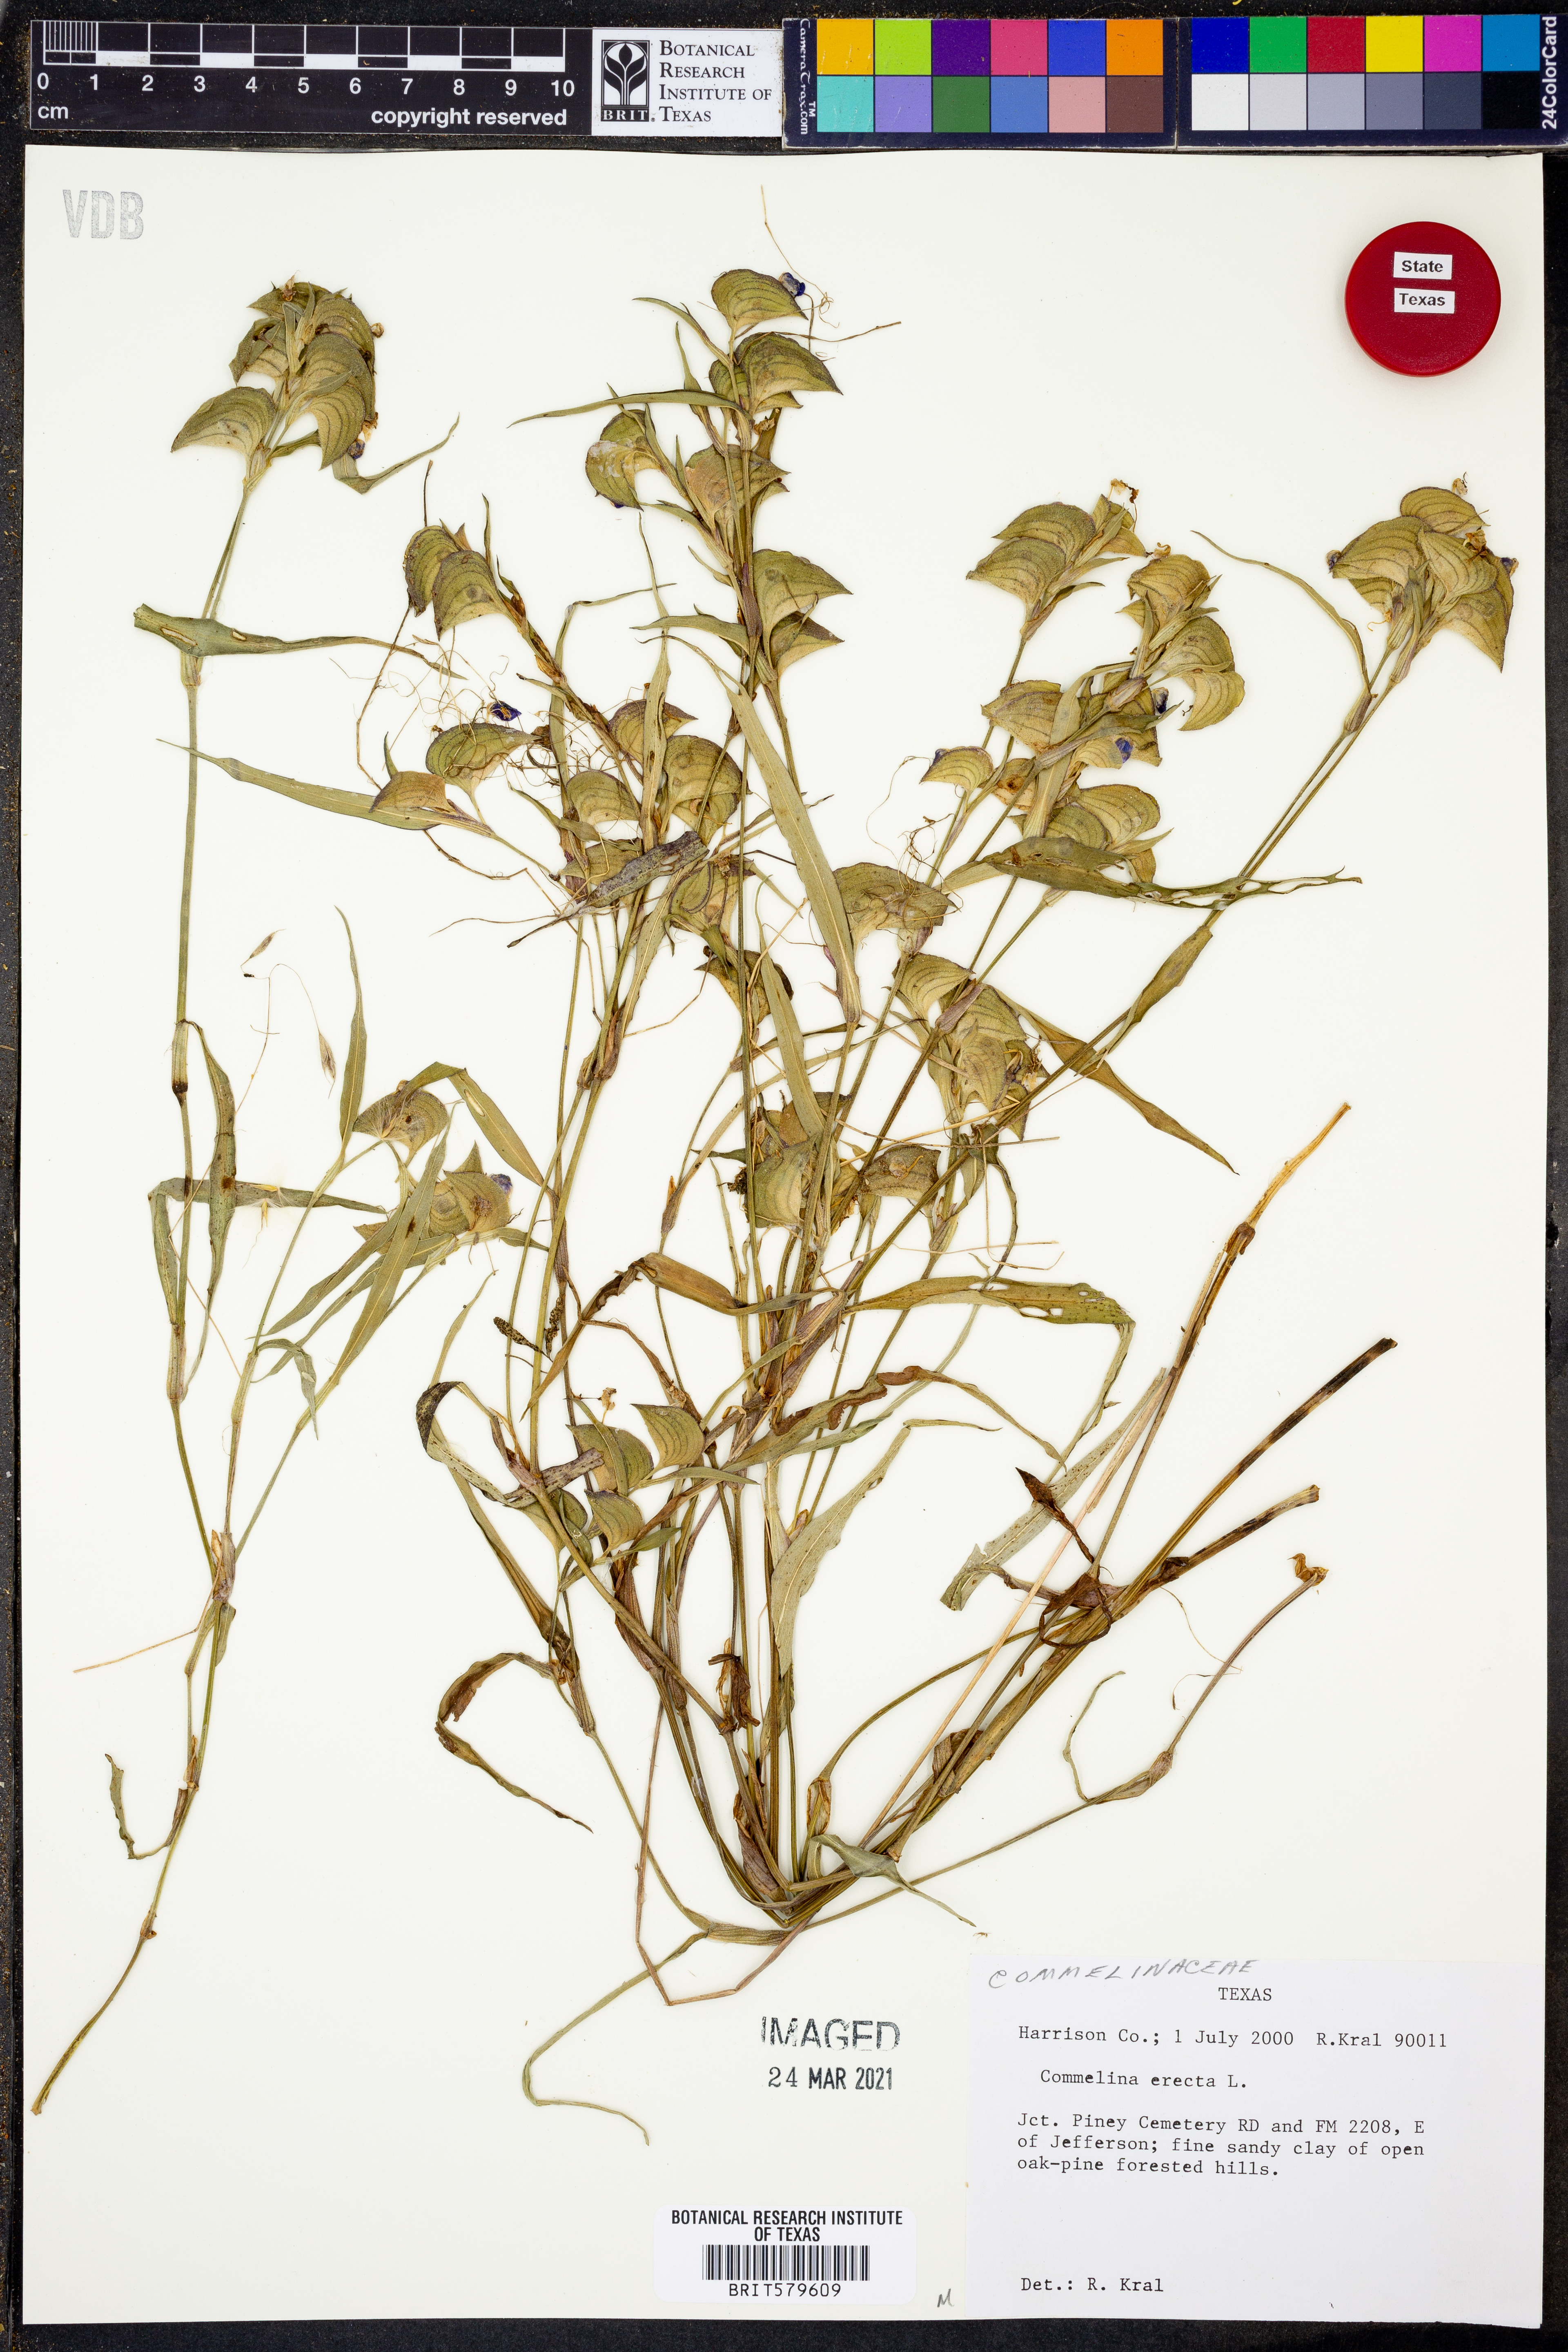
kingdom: Plantae
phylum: Tracheophyta
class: Liliopsida
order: Commelinales
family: Commelinaceae
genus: Commelina
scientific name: Commelina erecta
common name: Blousel blommetjie
